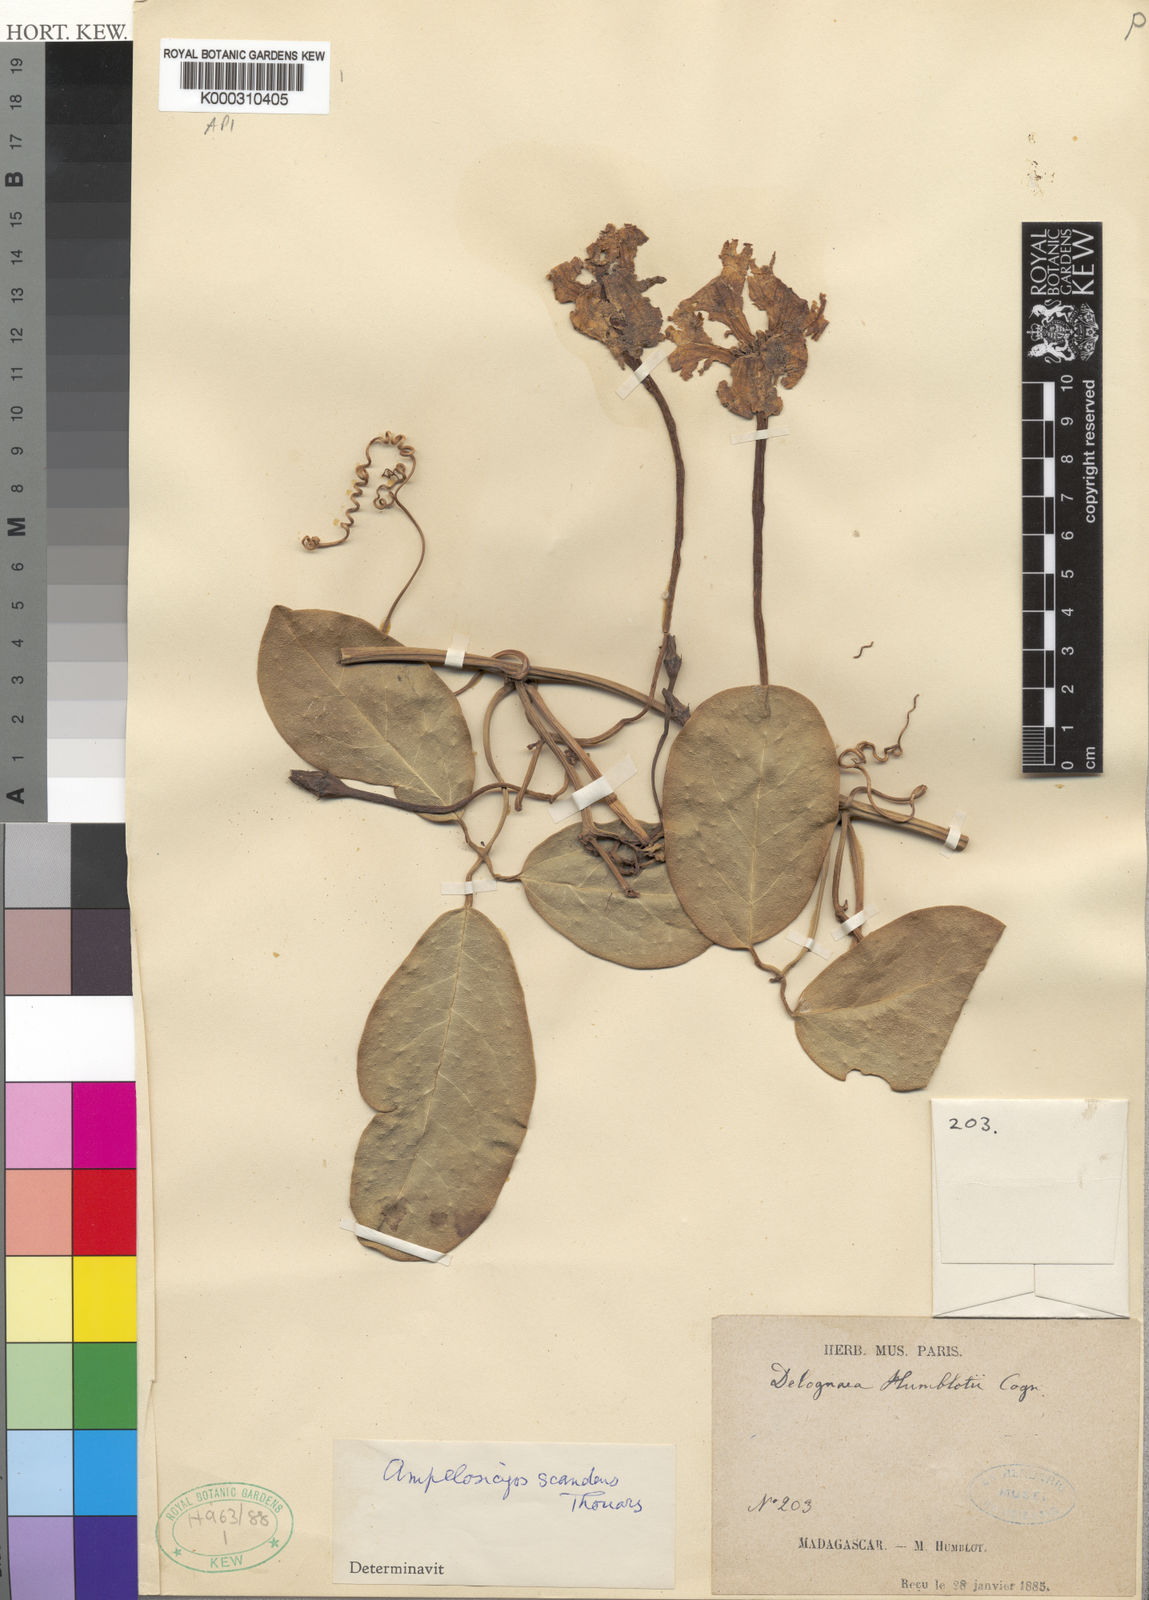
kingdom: Plantae
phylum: Tracheophyta
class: Magnoliopsida
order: Cucurbitales
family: Cucurbitaceae
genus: Ampelosicyos
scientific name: Ampelosicyos humblotii
